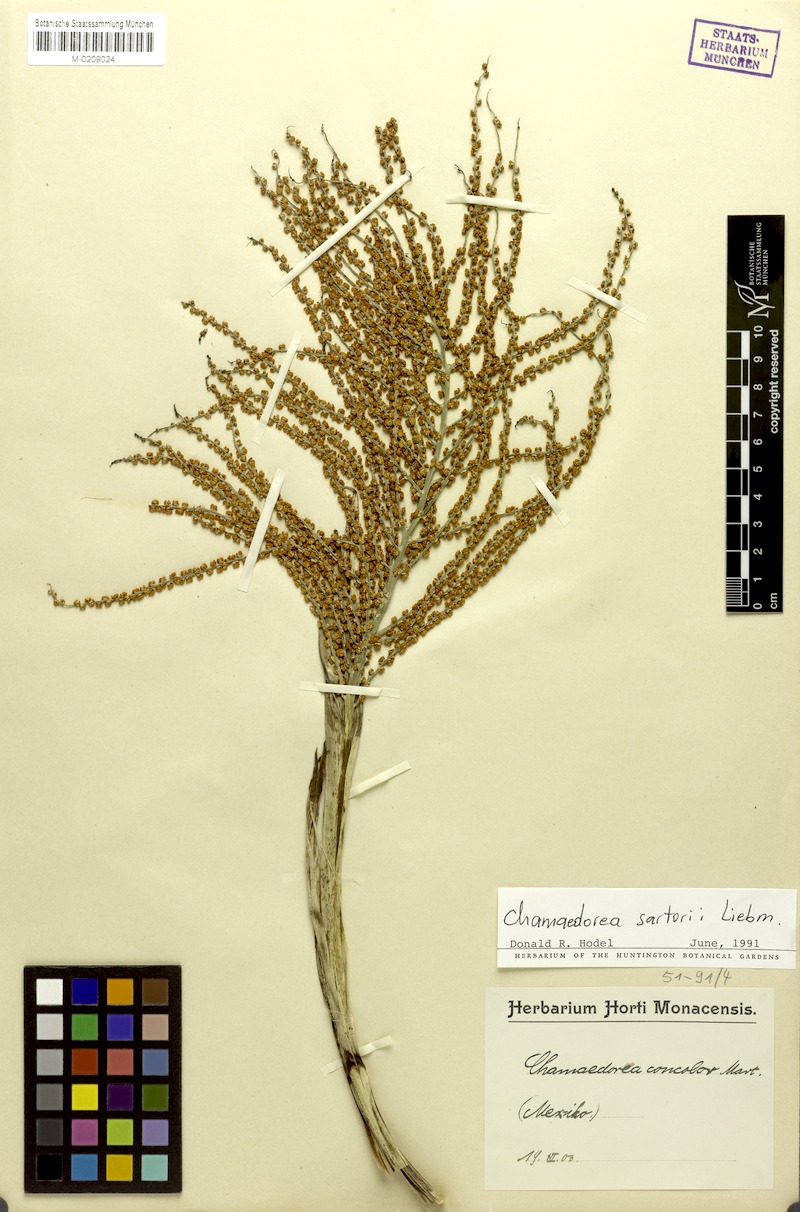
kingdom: Plantae
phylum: Tracheophyta
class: Liliopsida
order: Arecales
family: Arecaceae
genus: Chamaedorea
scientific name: Chamaedorea sartorii
